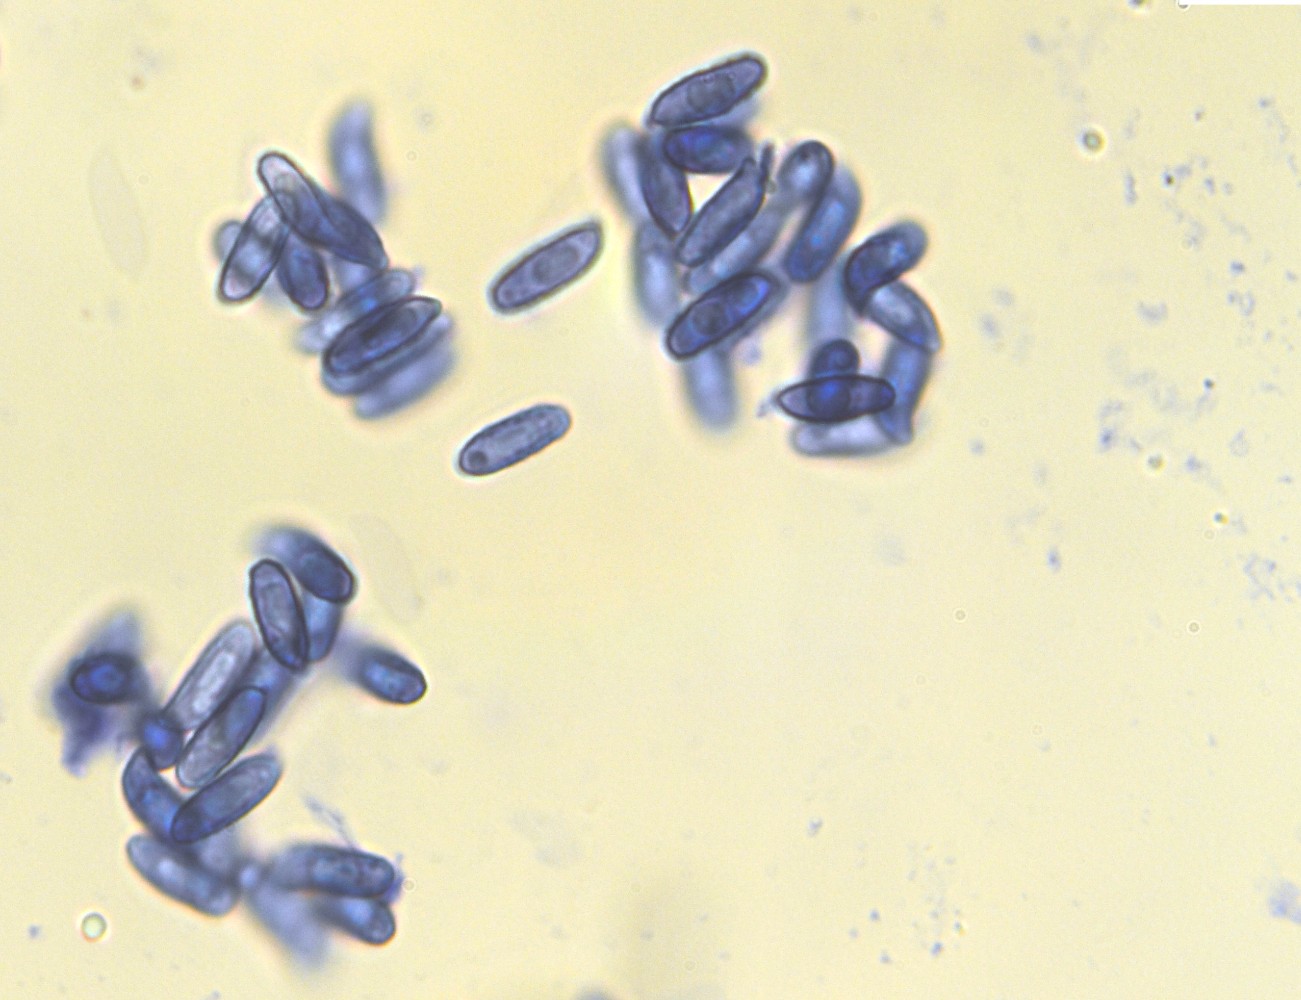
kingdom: Fungi
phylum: Basidiomycota
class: Agaricomycetes
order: Gomphales
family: Gomphaceae
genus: Ramaria
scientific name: Ramaria fagetorum
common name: abrikos-koralsvamp
